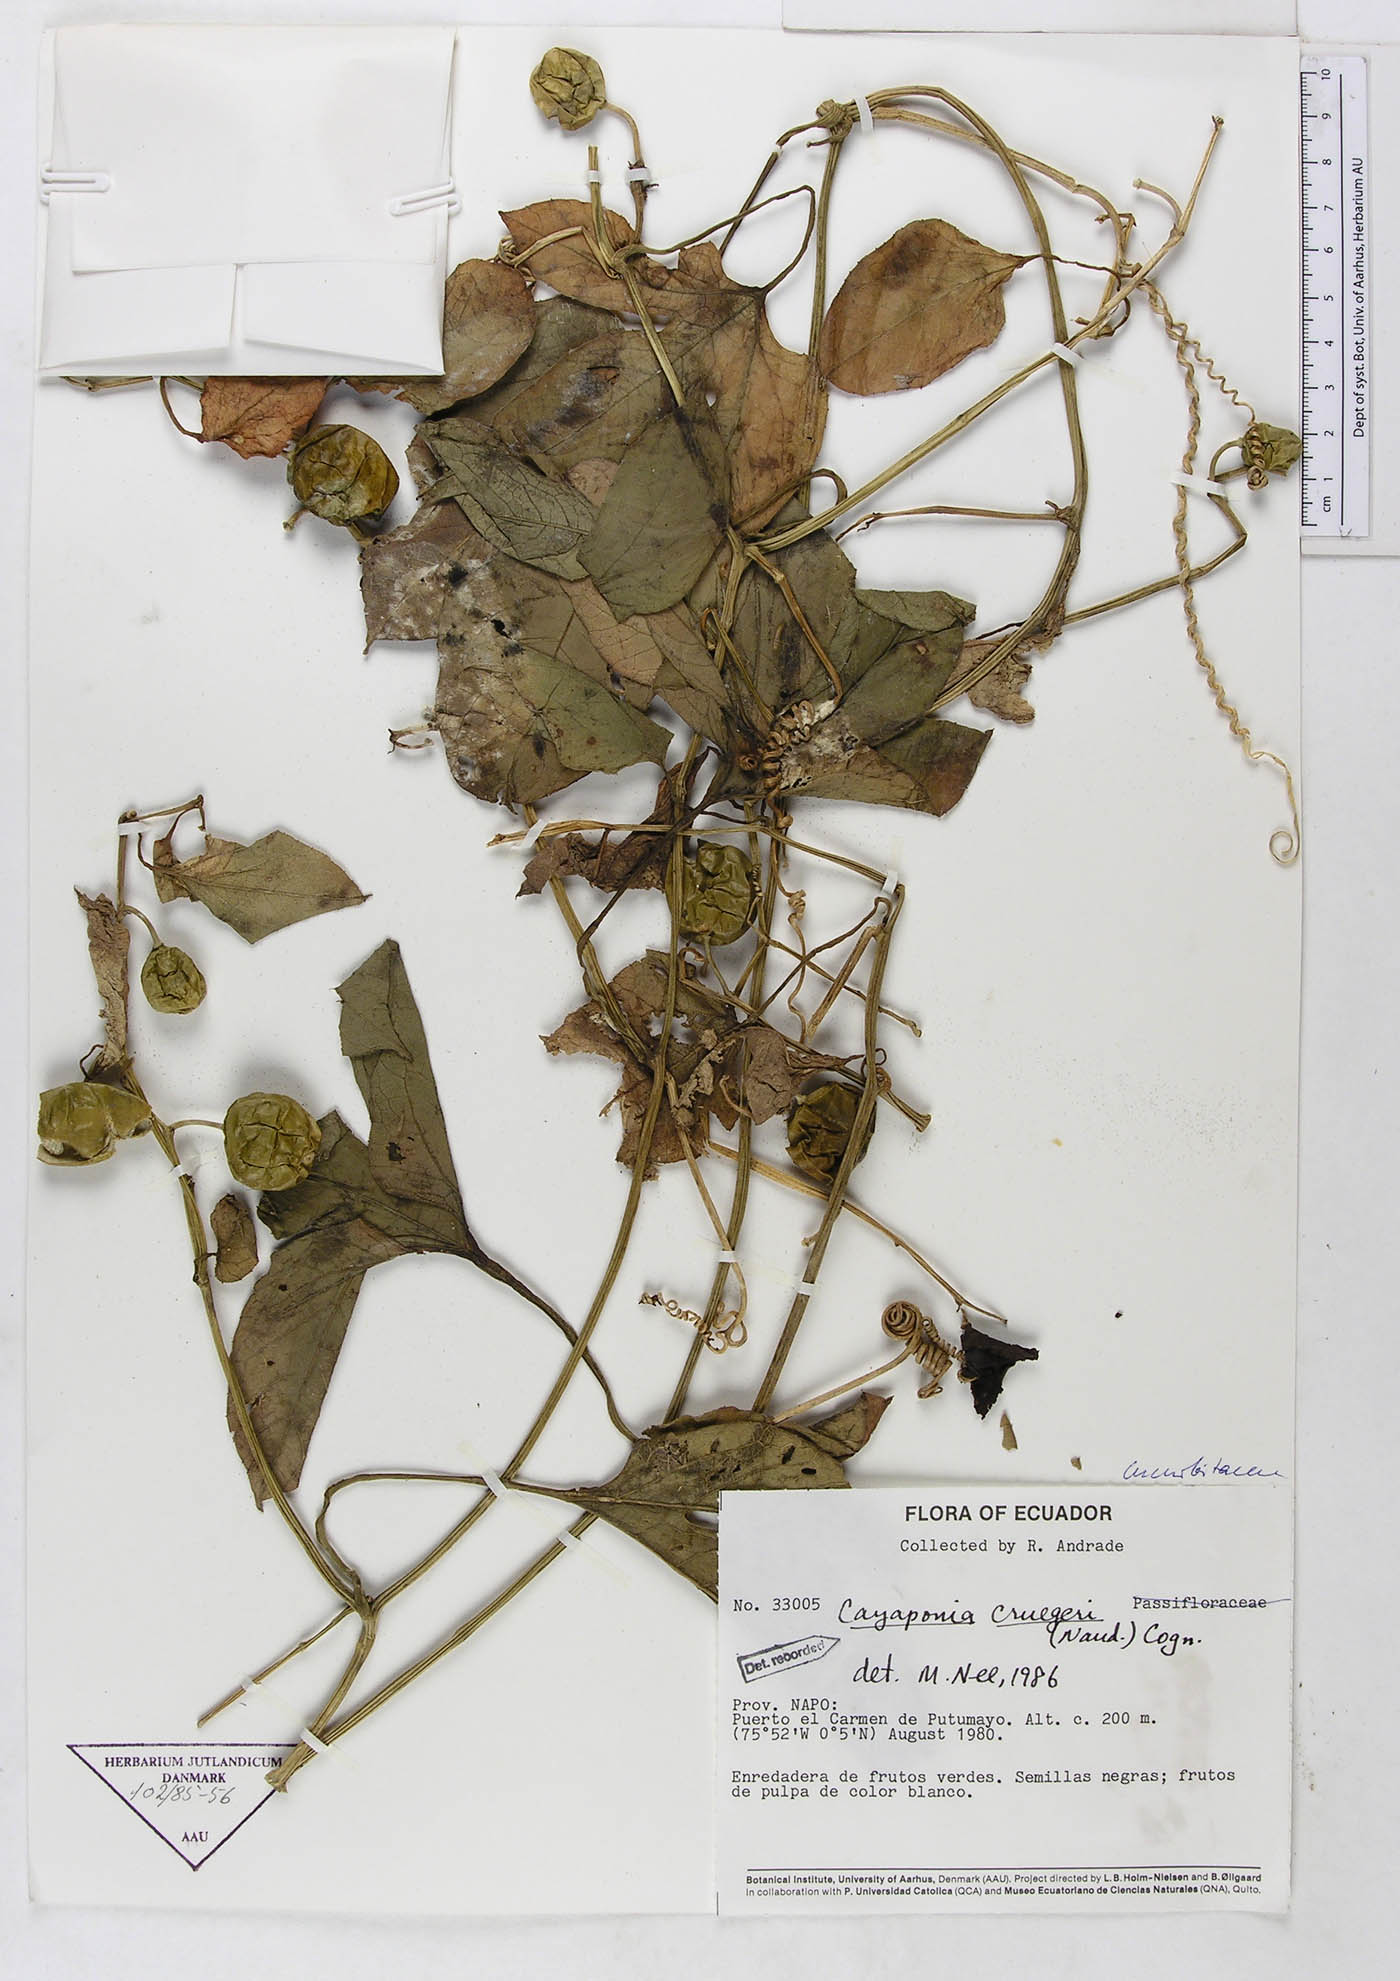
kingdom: Plantae
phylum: Tracheophyta
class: Magnoliopsida
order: Cucurbitales
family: Cucurbitaceae
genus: Cayaponia
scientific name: Cayaponia cruegeri
